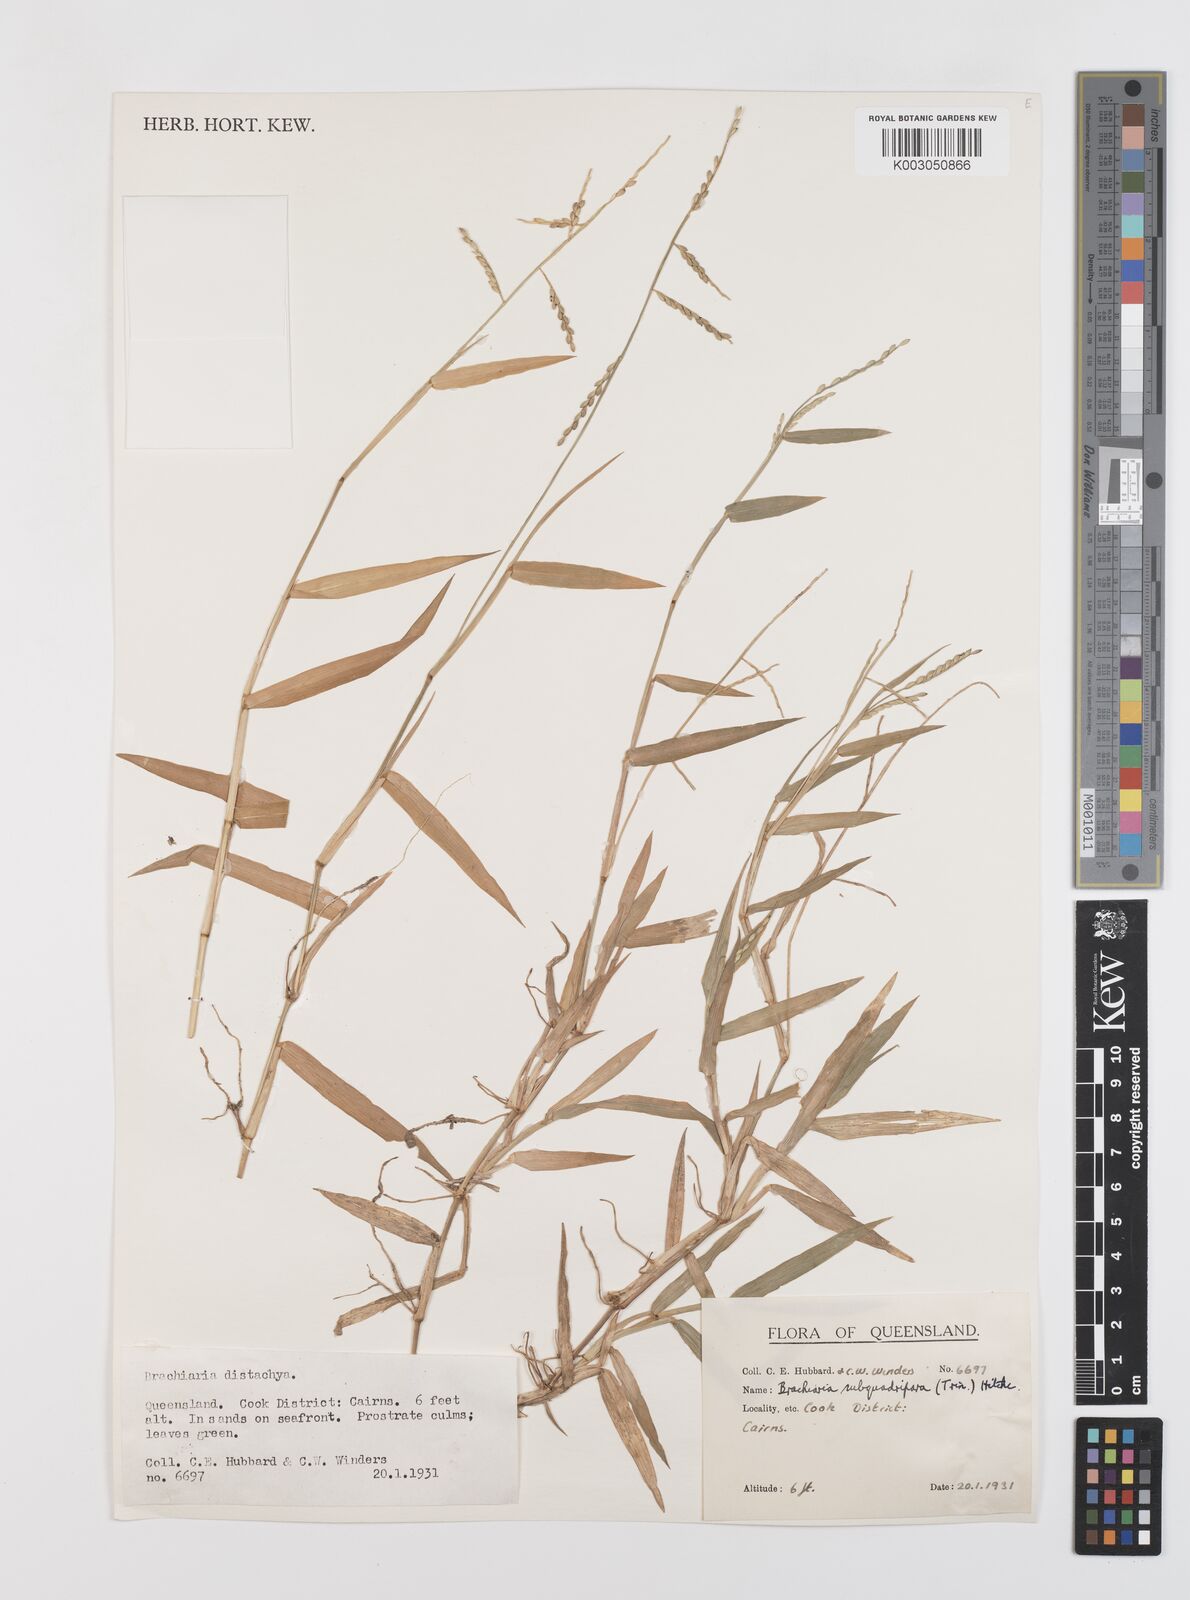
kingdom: Plantae
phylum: Tracheophyta
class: Liliopsida
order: Poales
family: Poaceae
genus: Urochloa
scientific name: Urochloa subquadripara
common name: Armgrass millet
